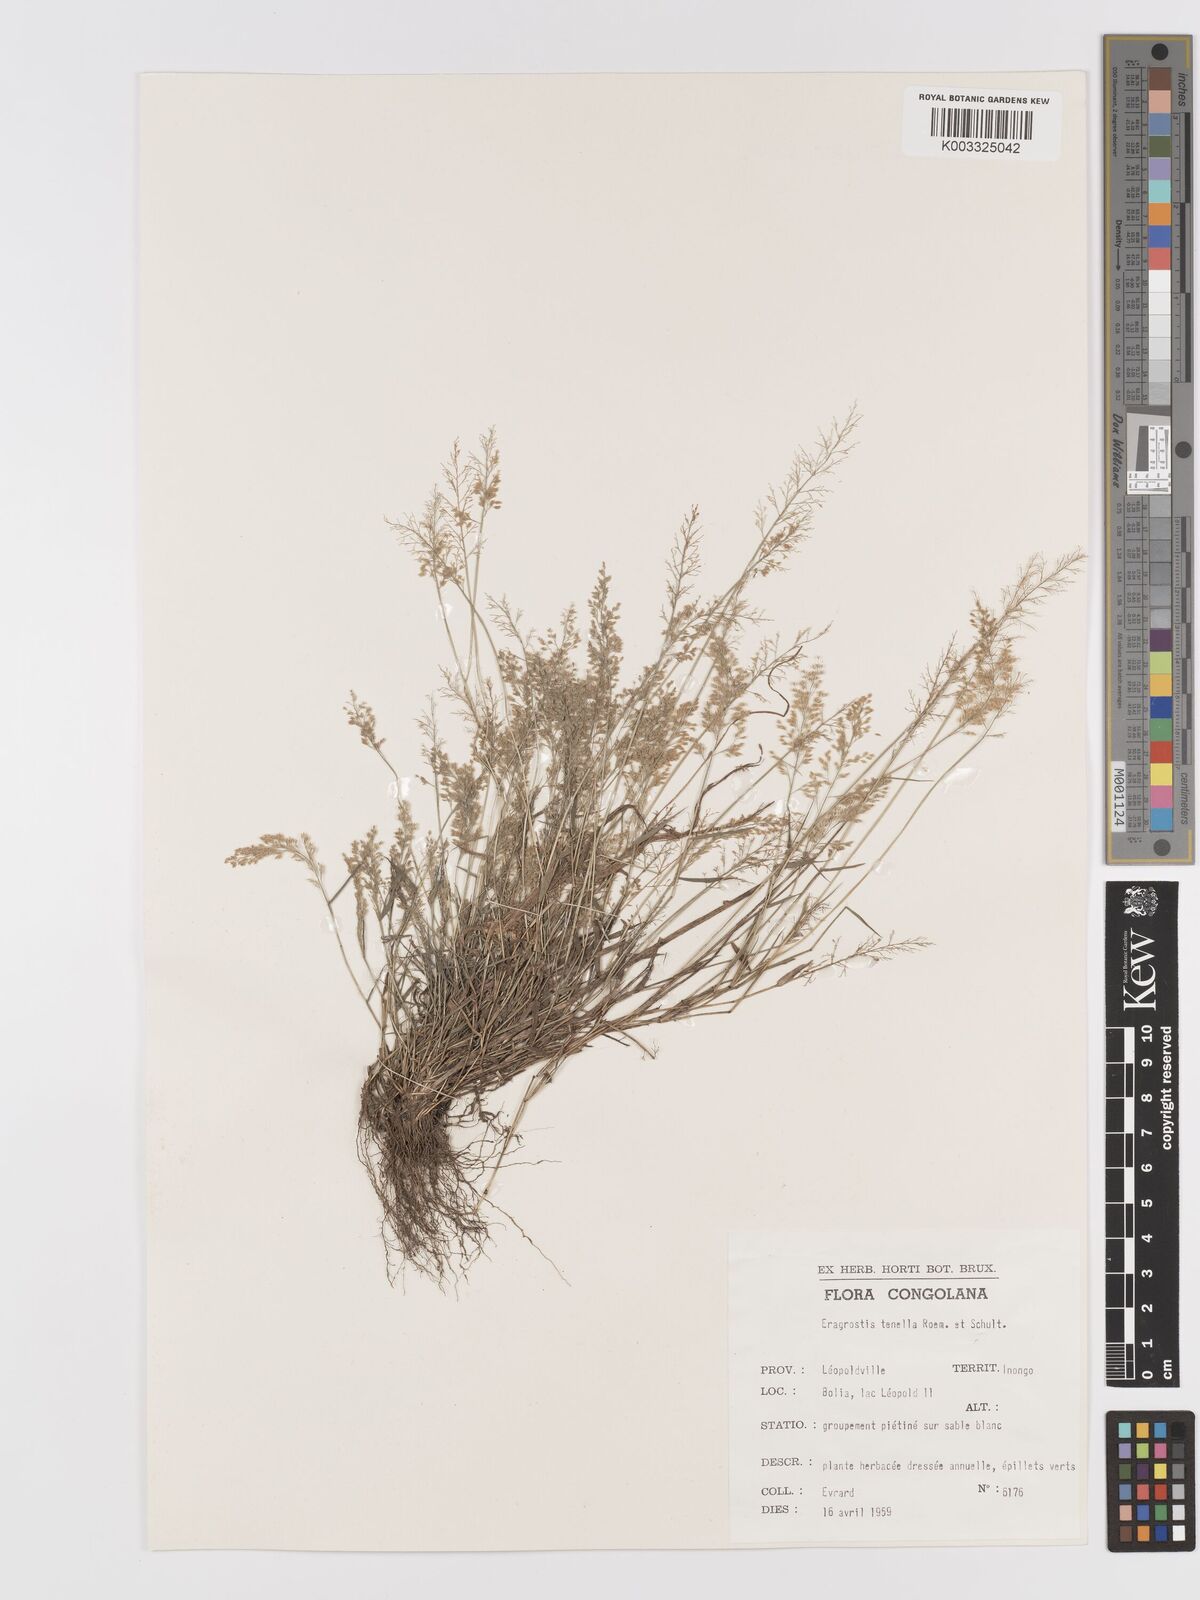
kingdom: Plantae
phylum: Tracheophyta
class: Liliopsida
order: Poales
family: Poaceae
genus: Eragrostis
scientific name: Eragrostis tenella
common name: Japanese lovegrass
